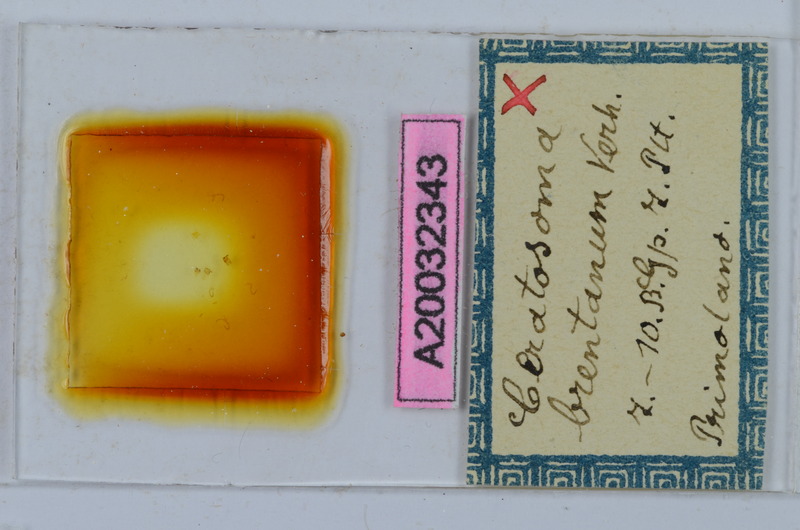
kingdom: Animalia
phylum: Arthropoda
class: Diplopoda
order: Chordeumatida
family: Craspedosomatidae
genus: Ochogona
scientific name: Ochogona brentana
